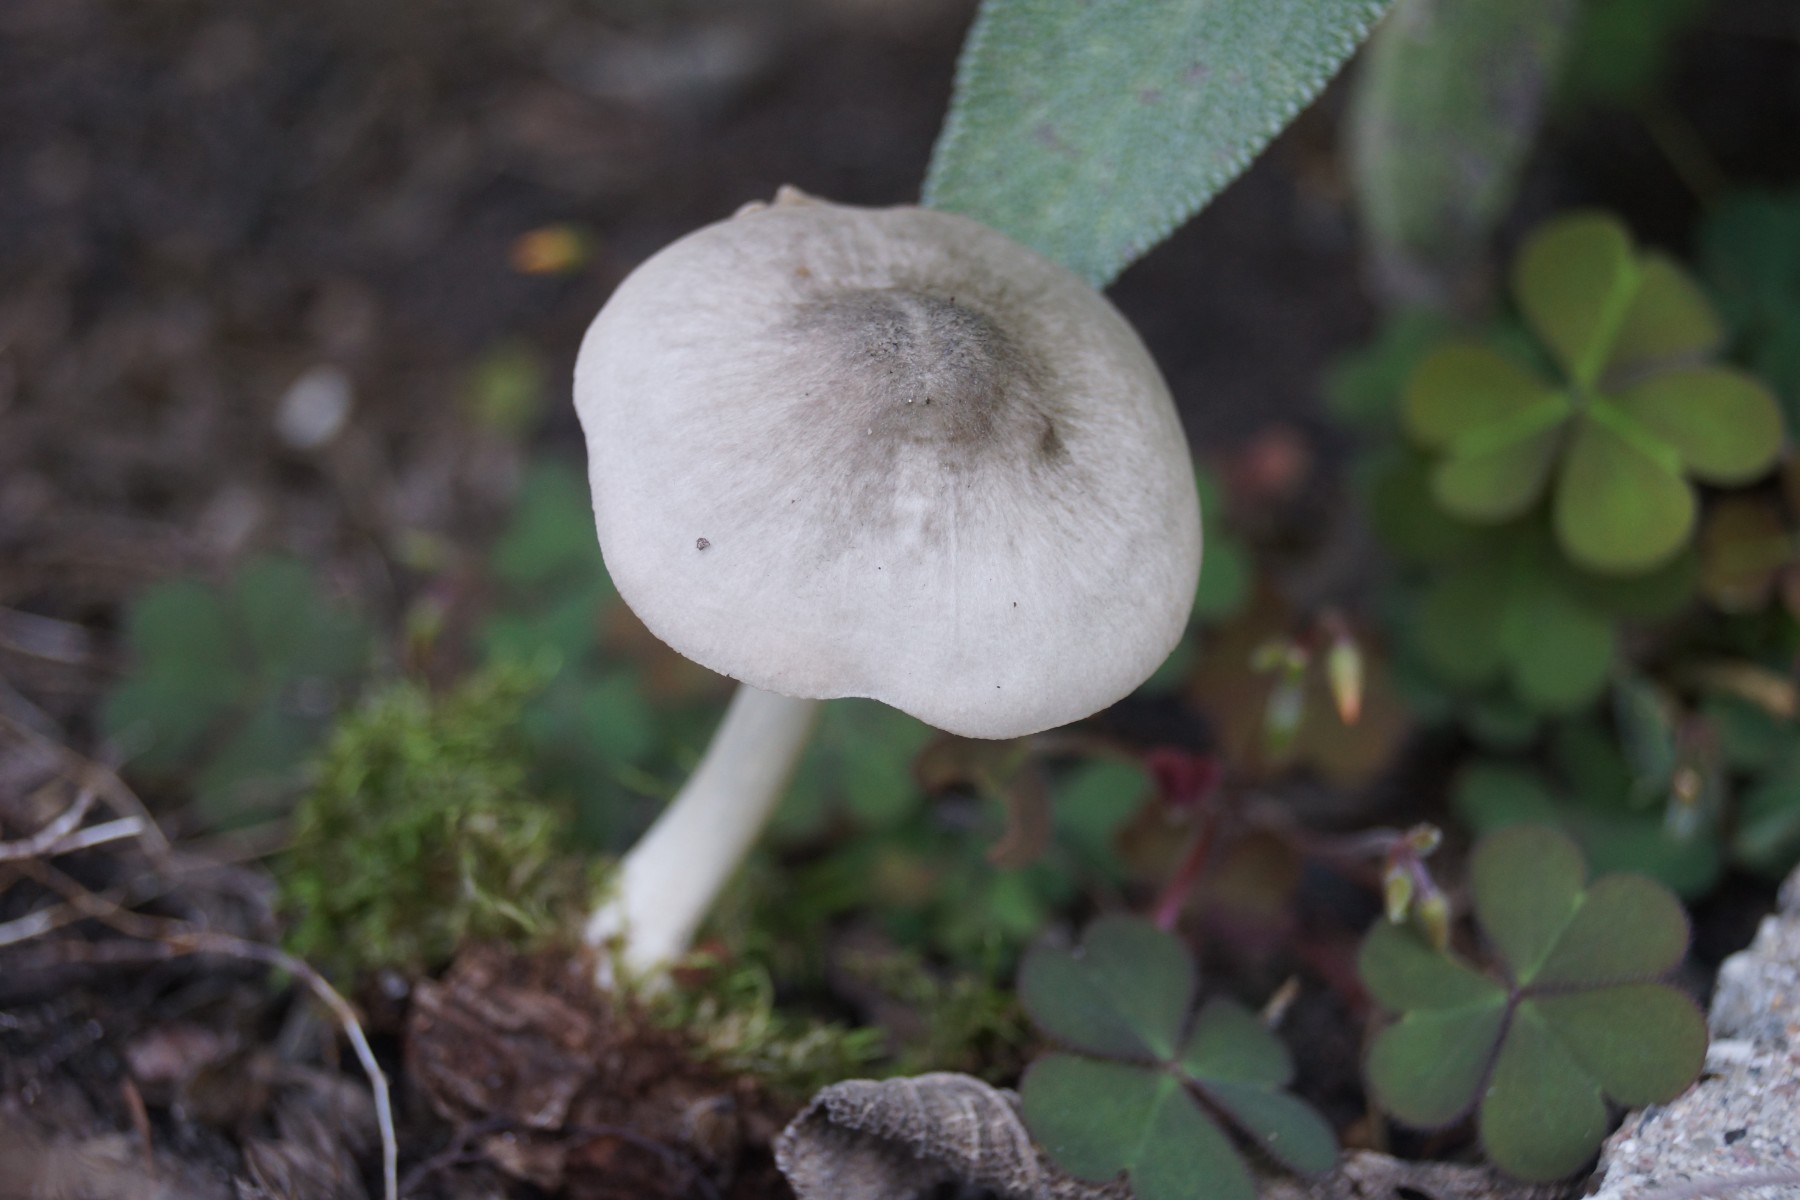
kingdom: Fungi
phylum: Basidiomycota
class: Agaricomycetes
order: Agaricales
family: Pluteaceae
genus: Pluteus
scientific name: Pluteus salicinus
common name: stiv skærmhat
